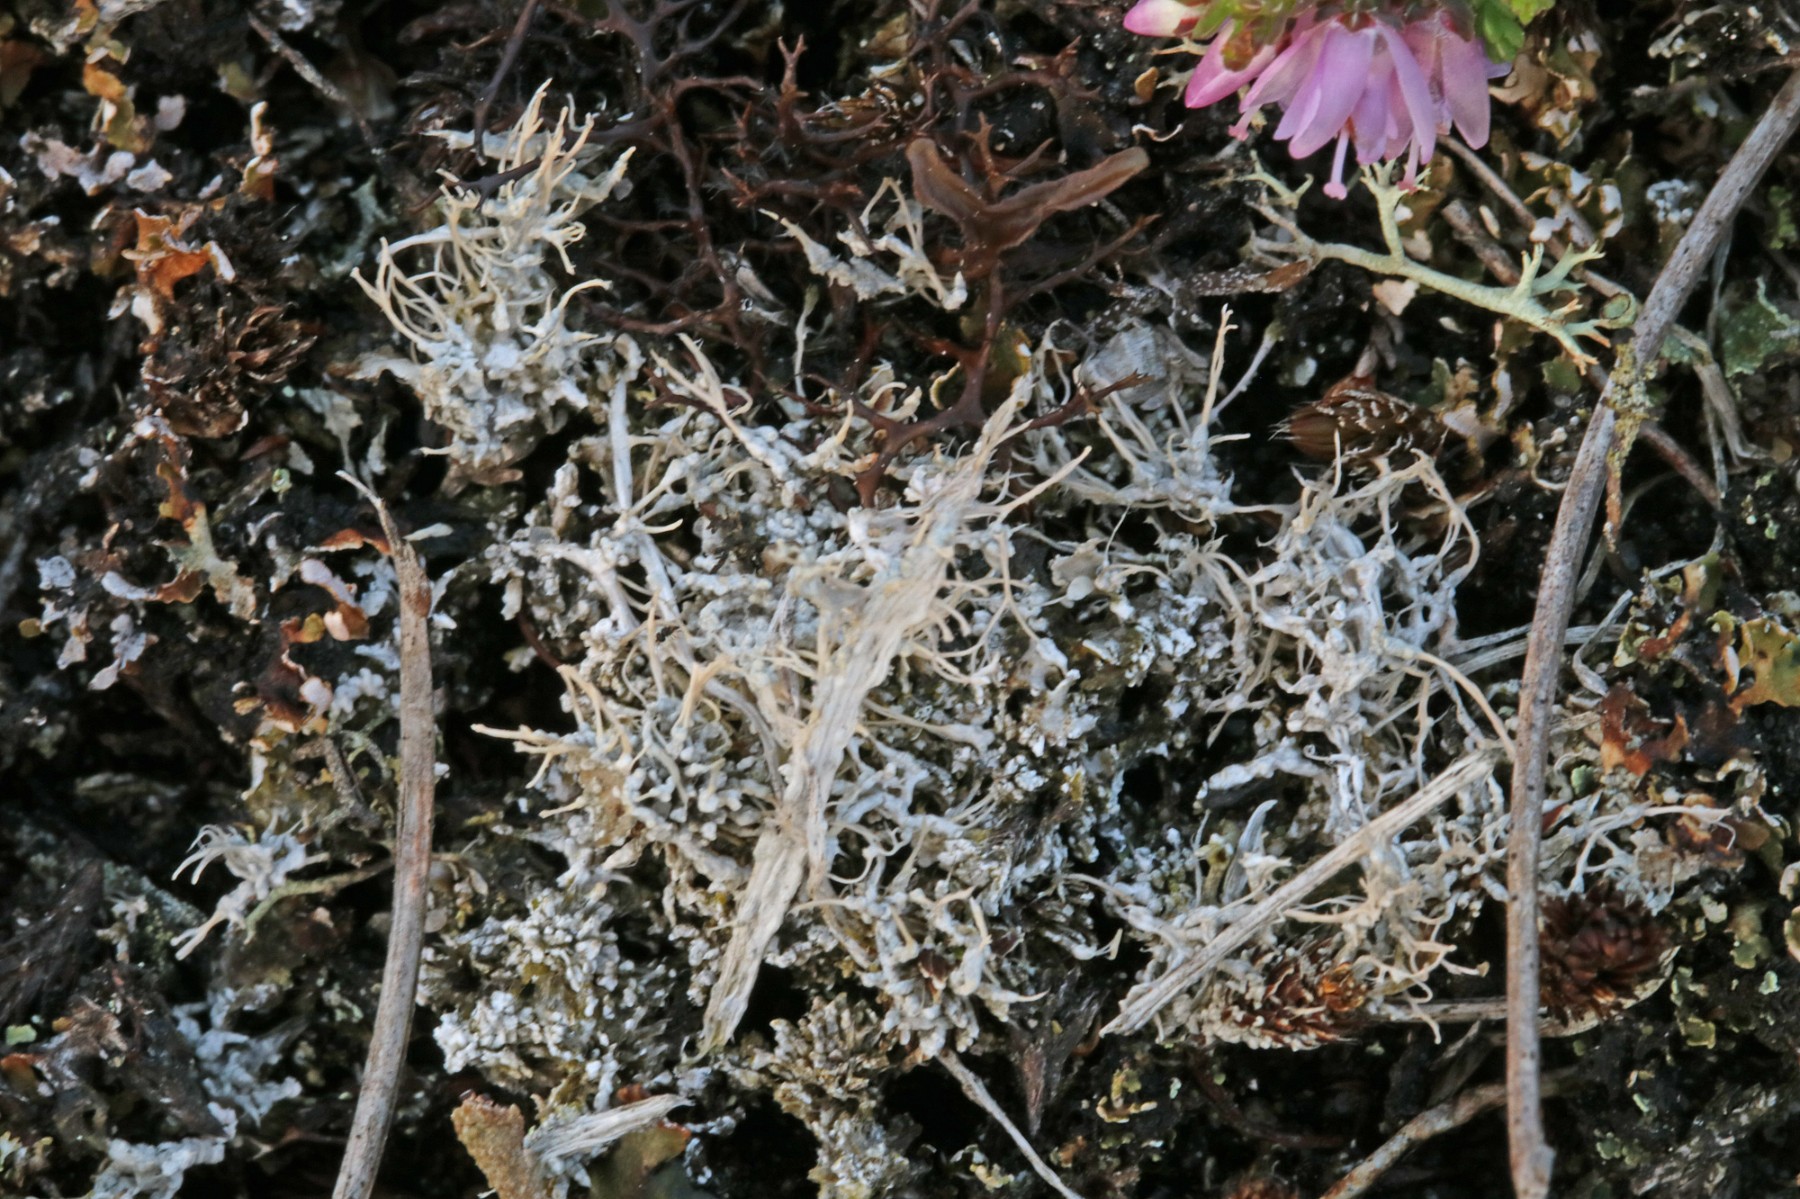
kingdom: Fungi
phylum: Ascomycota
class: Lecanoromycetes
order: Pertusariales
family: Ochrolechiaceae
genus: Ochrolechia
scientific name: Ochrolechia frigida
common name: fjeld-blegskivelav
